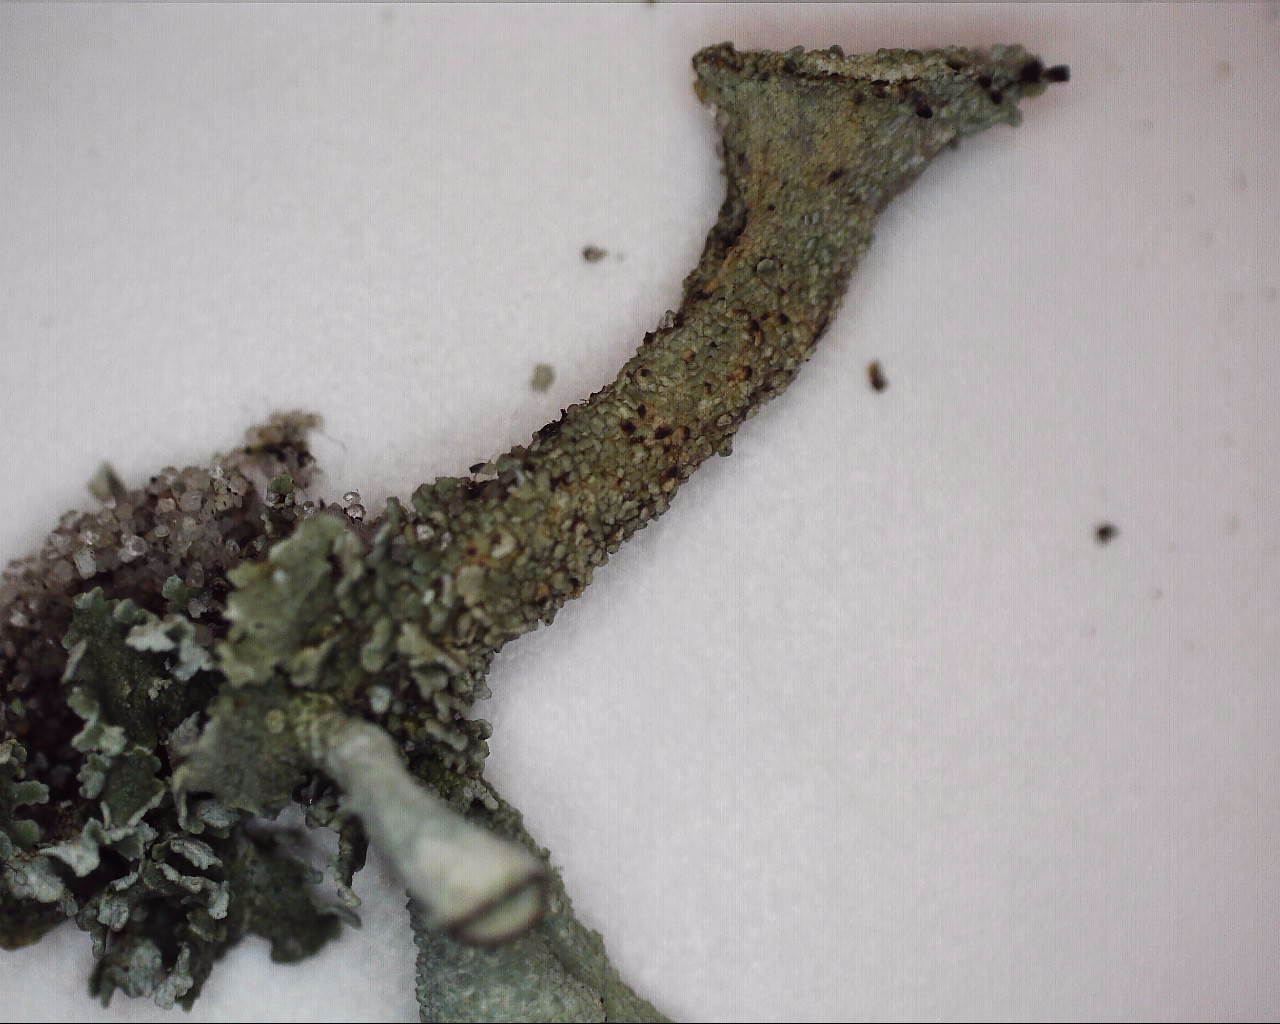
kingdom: Fungi
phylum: Ascomycota
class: Lecanoromycetes
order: Lecanorales
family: Cladoniaceae
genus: Cladonia
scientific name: Cladonia borealis
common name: nordlig bægerlav
